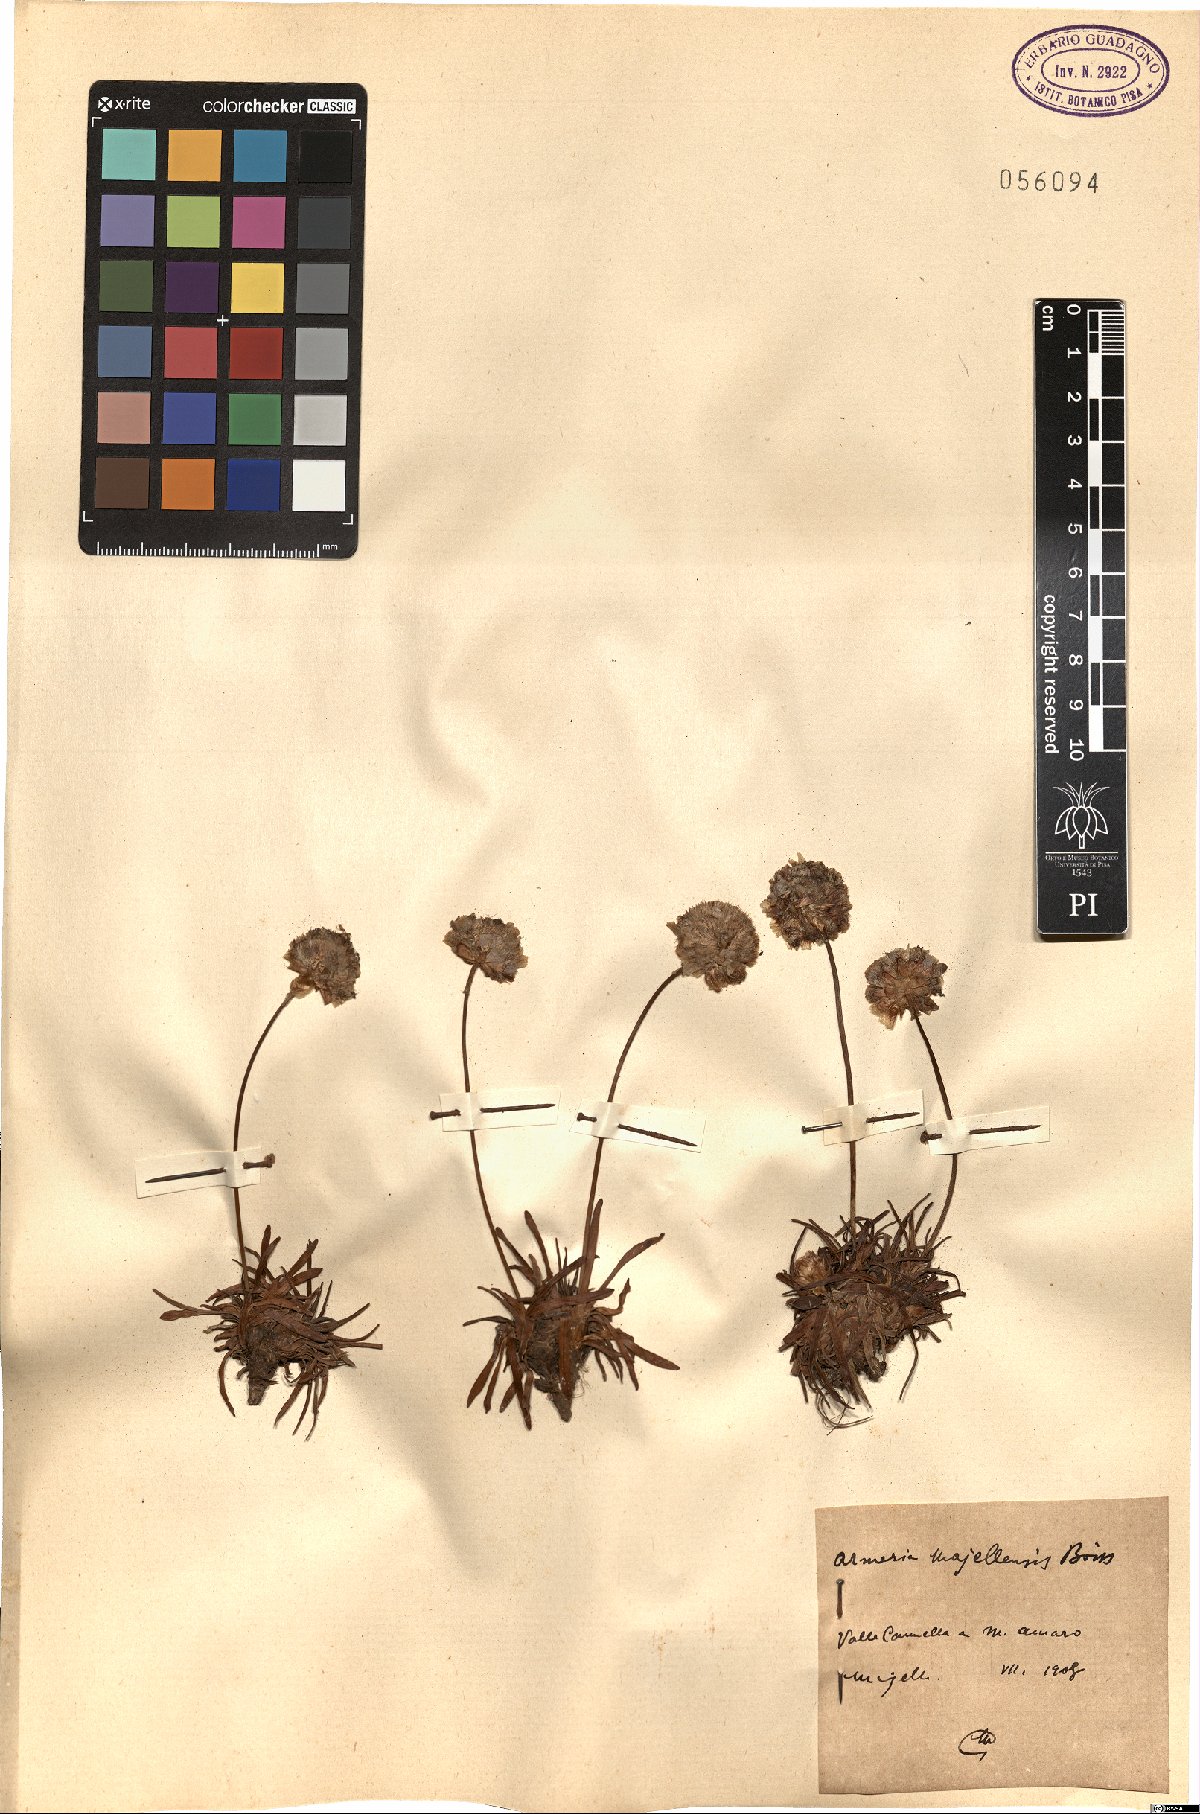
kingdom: Plantae
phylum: Tracheophyta
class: Magnoliopsida
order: Caryophyllales
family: Plumbaginaceae
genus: Armeria
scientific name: Armeria nebrodensis
